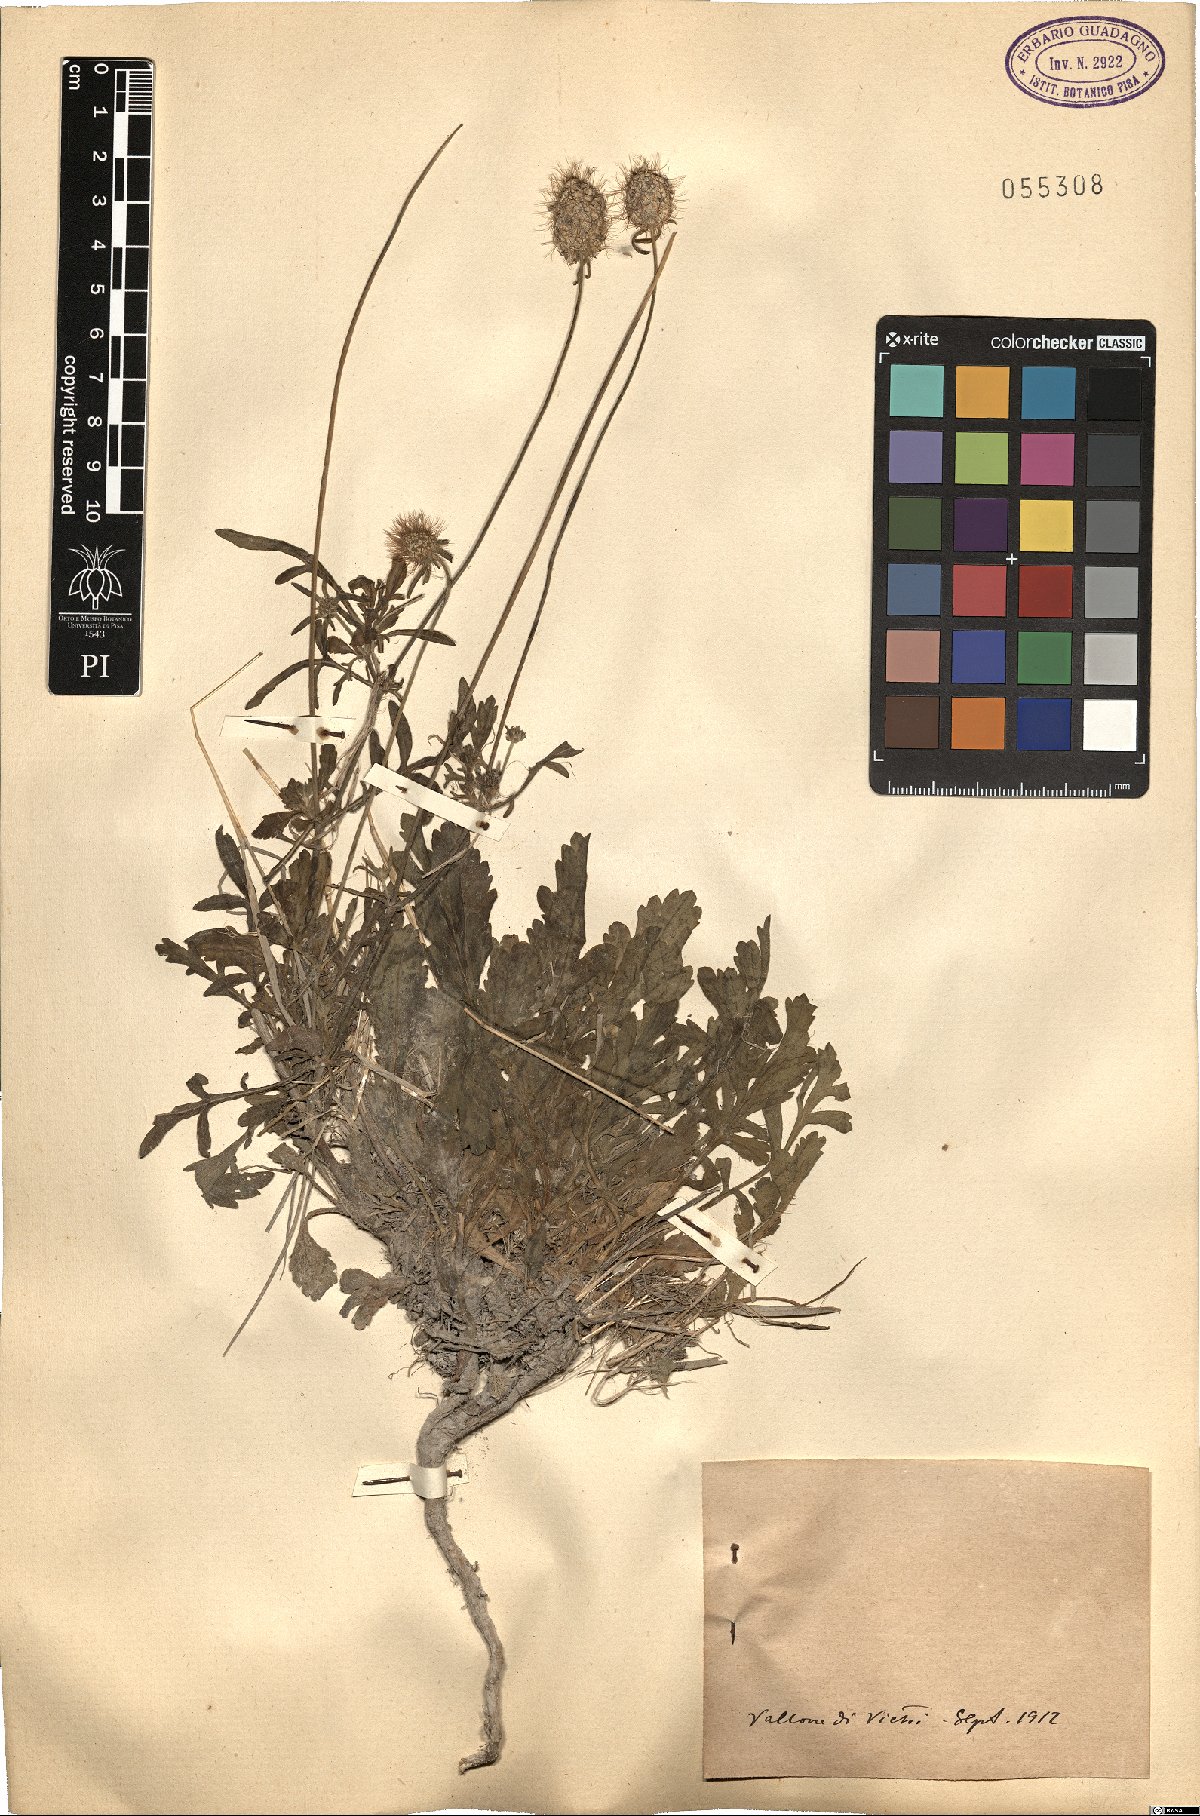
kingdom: Plantae
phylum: Tracheophyta
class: Magnoliopsida
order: Dipsacales
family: Caprifoliaceae
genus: Scabiosa
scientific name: Scabiosa
